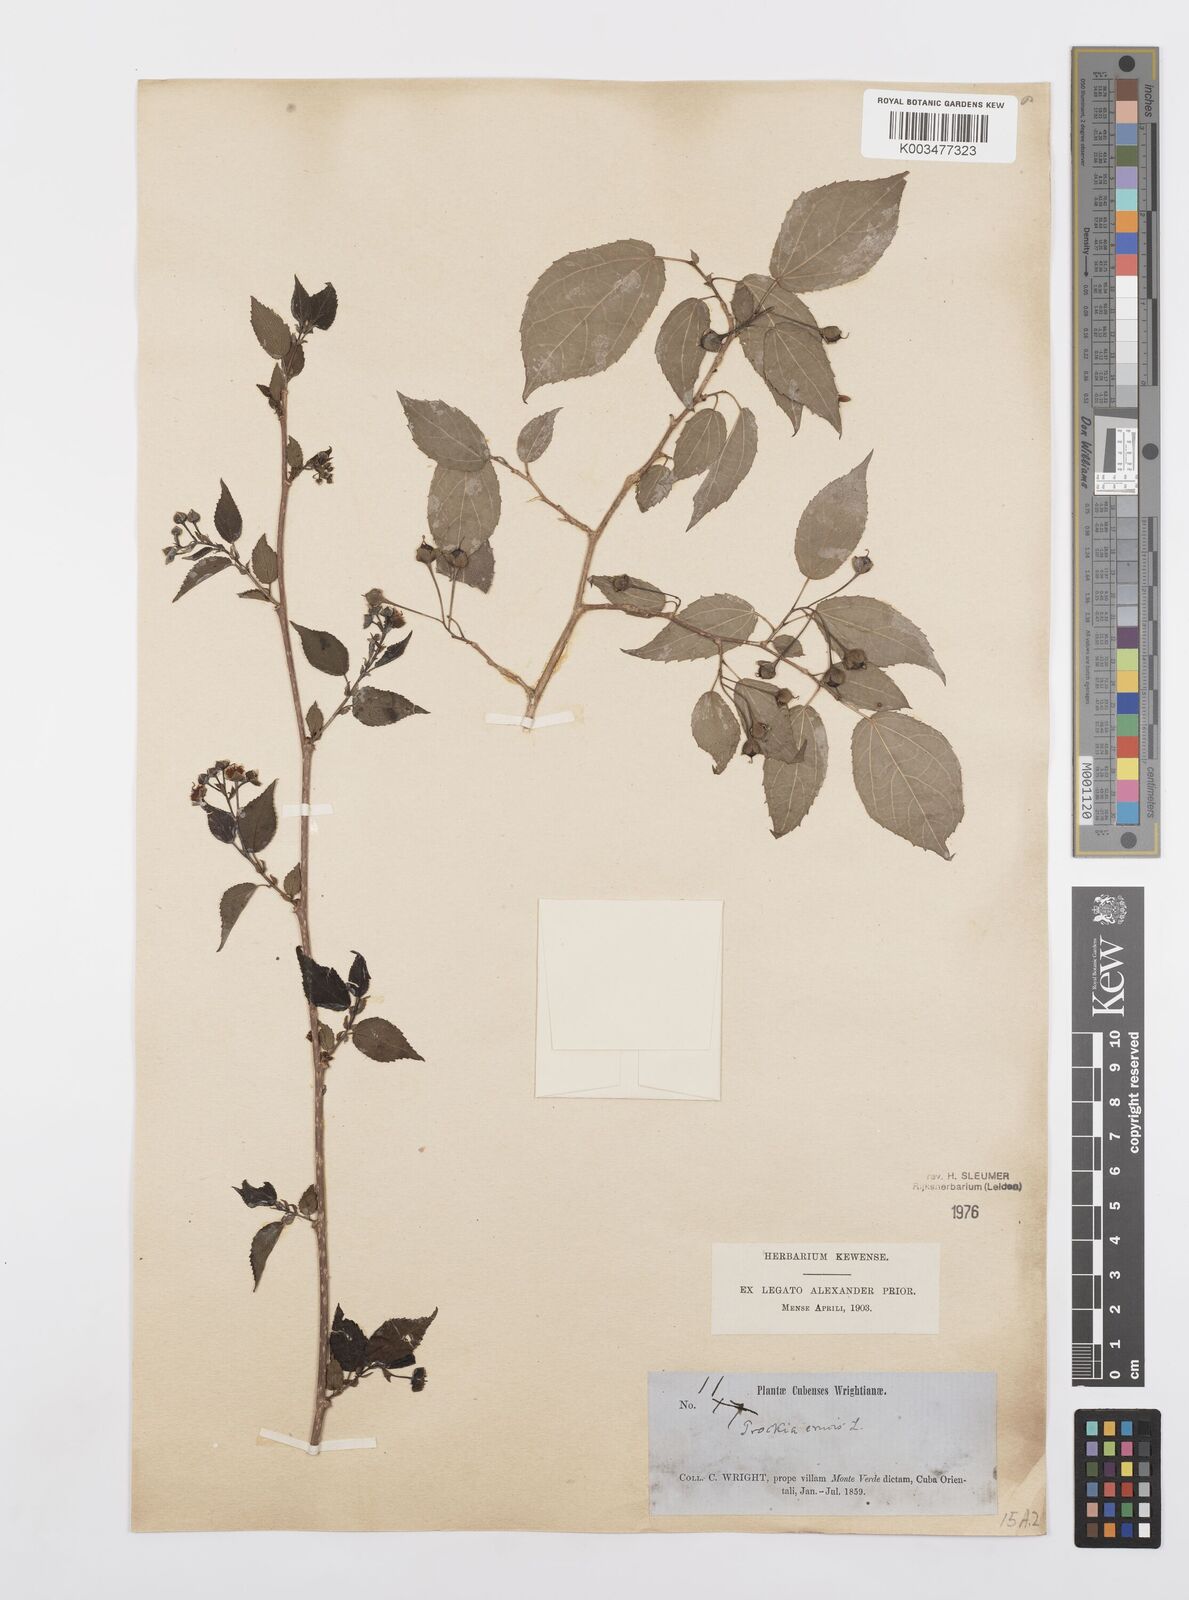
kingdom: Plantae
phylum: Tracheophyta
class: Magnoliopsida
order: Malpighiales
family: Salicaceae
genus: Prockia
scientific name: Prockia crucis
